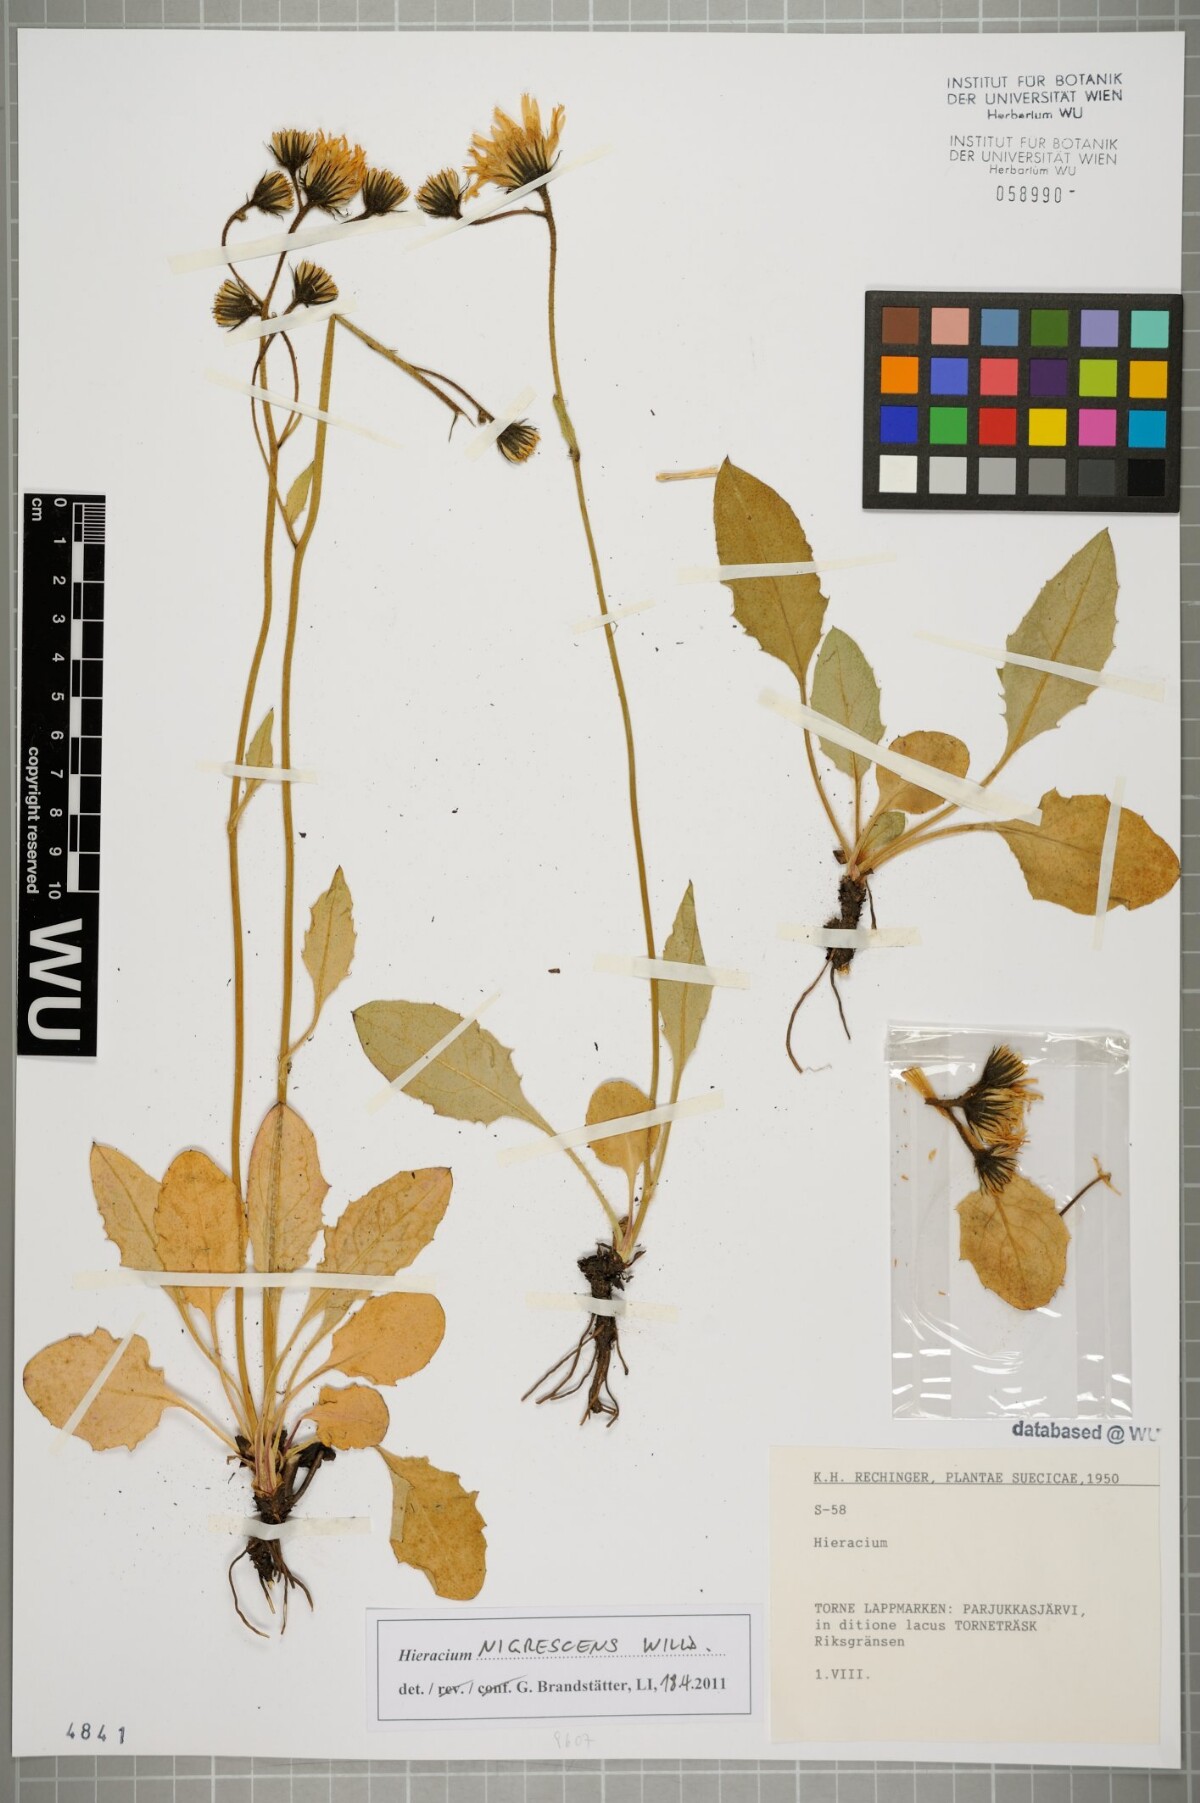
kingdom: Plantae
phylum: Tracheophyta
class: Magnoliopsida
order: Asterales
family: Asteraceae
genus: Hieracium
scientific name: Hieracium nigrescens
